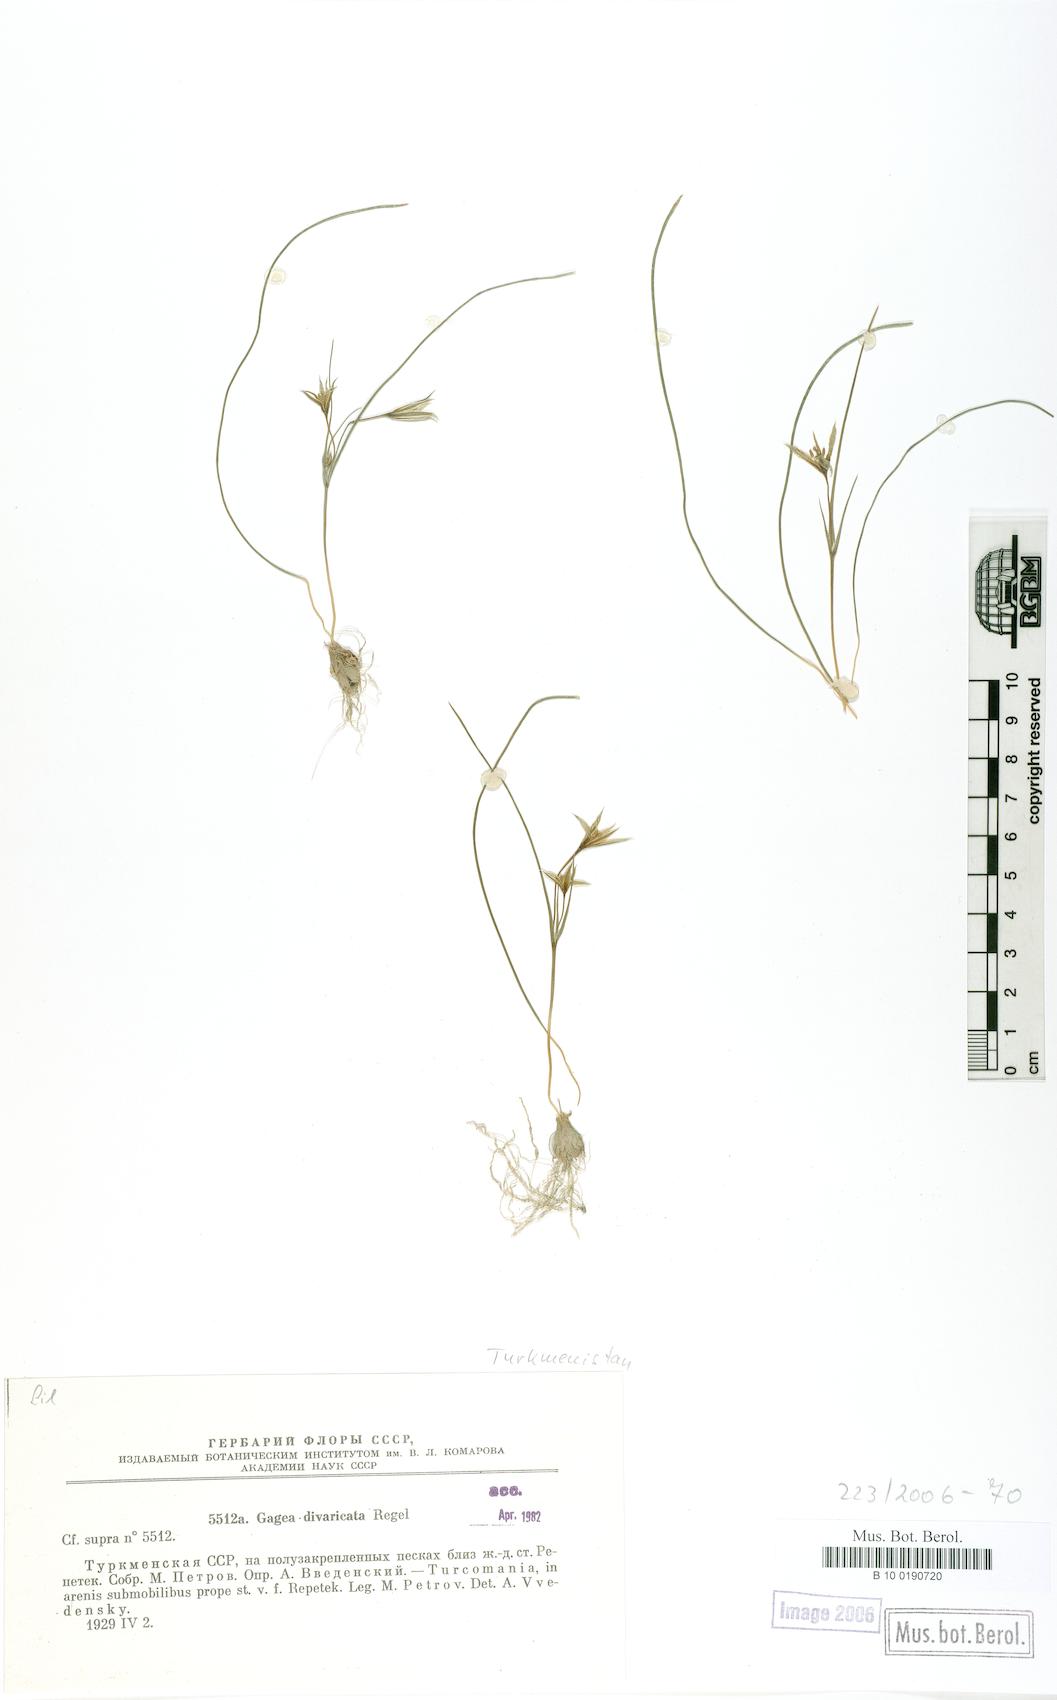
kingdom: Plantae
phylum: Tracheophyta
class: Liliopsida
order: Liliales
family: Liliaceae
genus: Gagea
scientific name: Gagea divaricata
